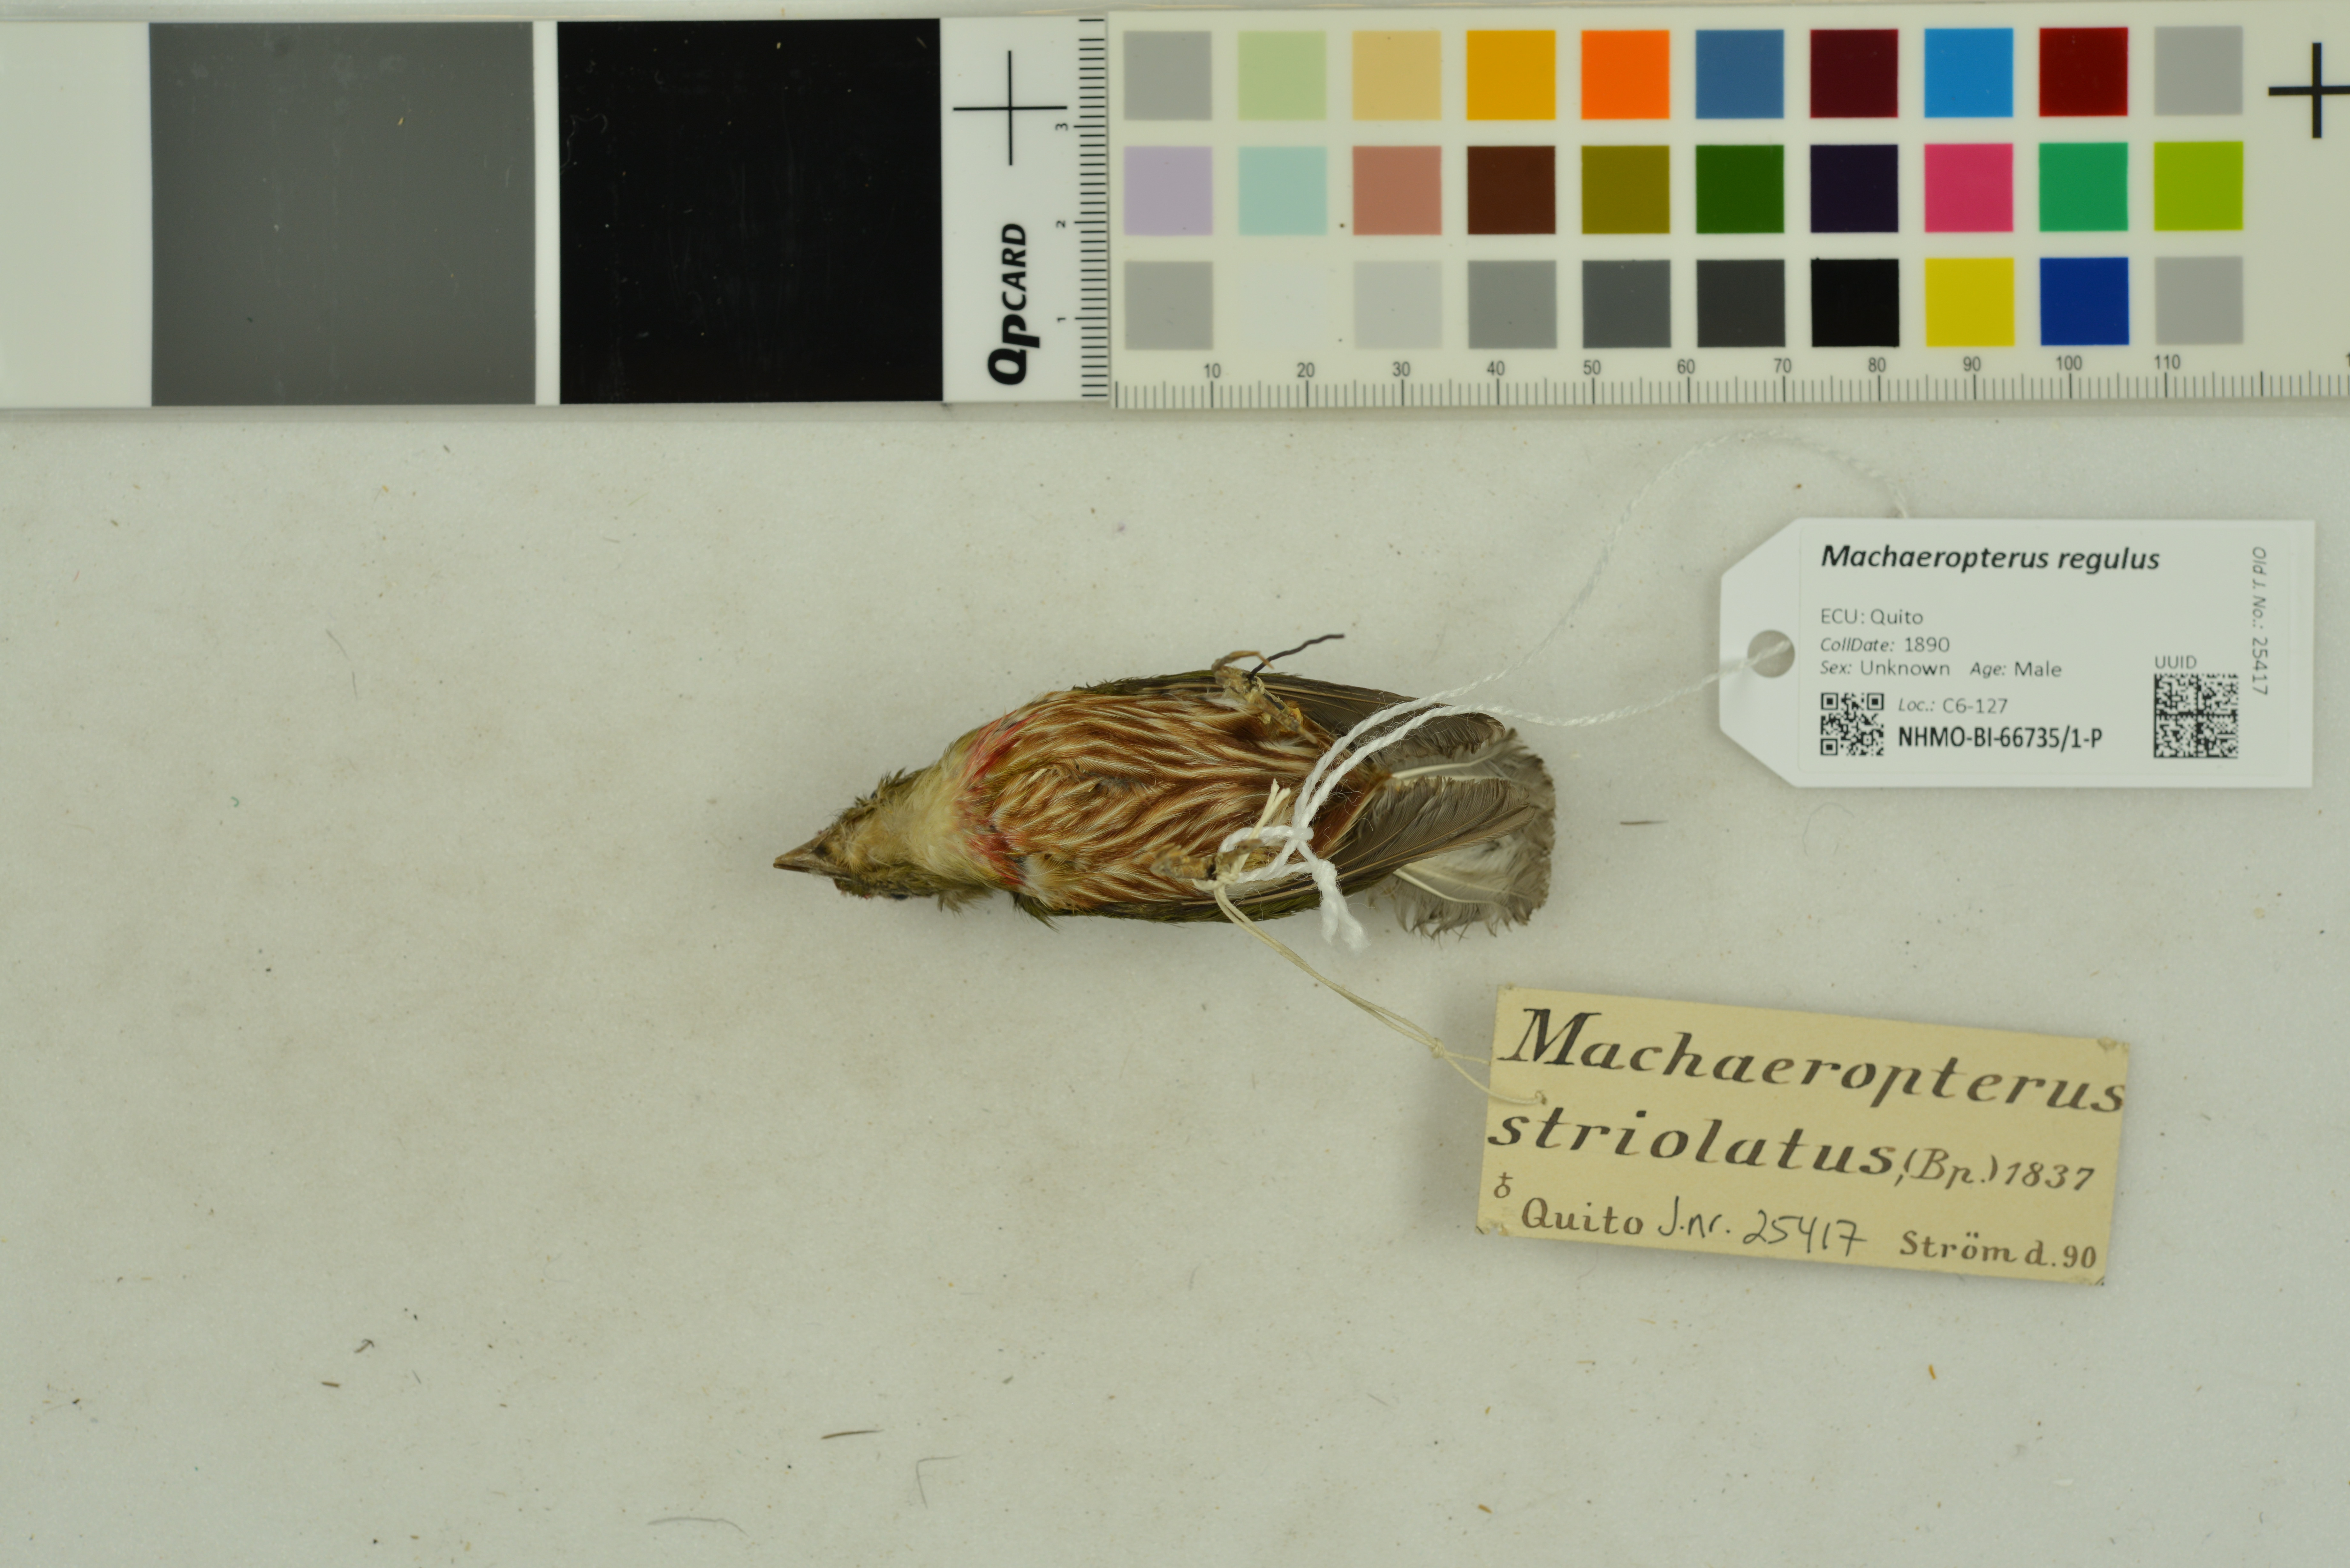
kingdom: Animalia
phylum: Chordata
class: Aves
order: Passeriformes
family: Pipridae
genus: Machaeropterus
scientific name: Machaeropterus regulus
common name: Eastern striped manakin
